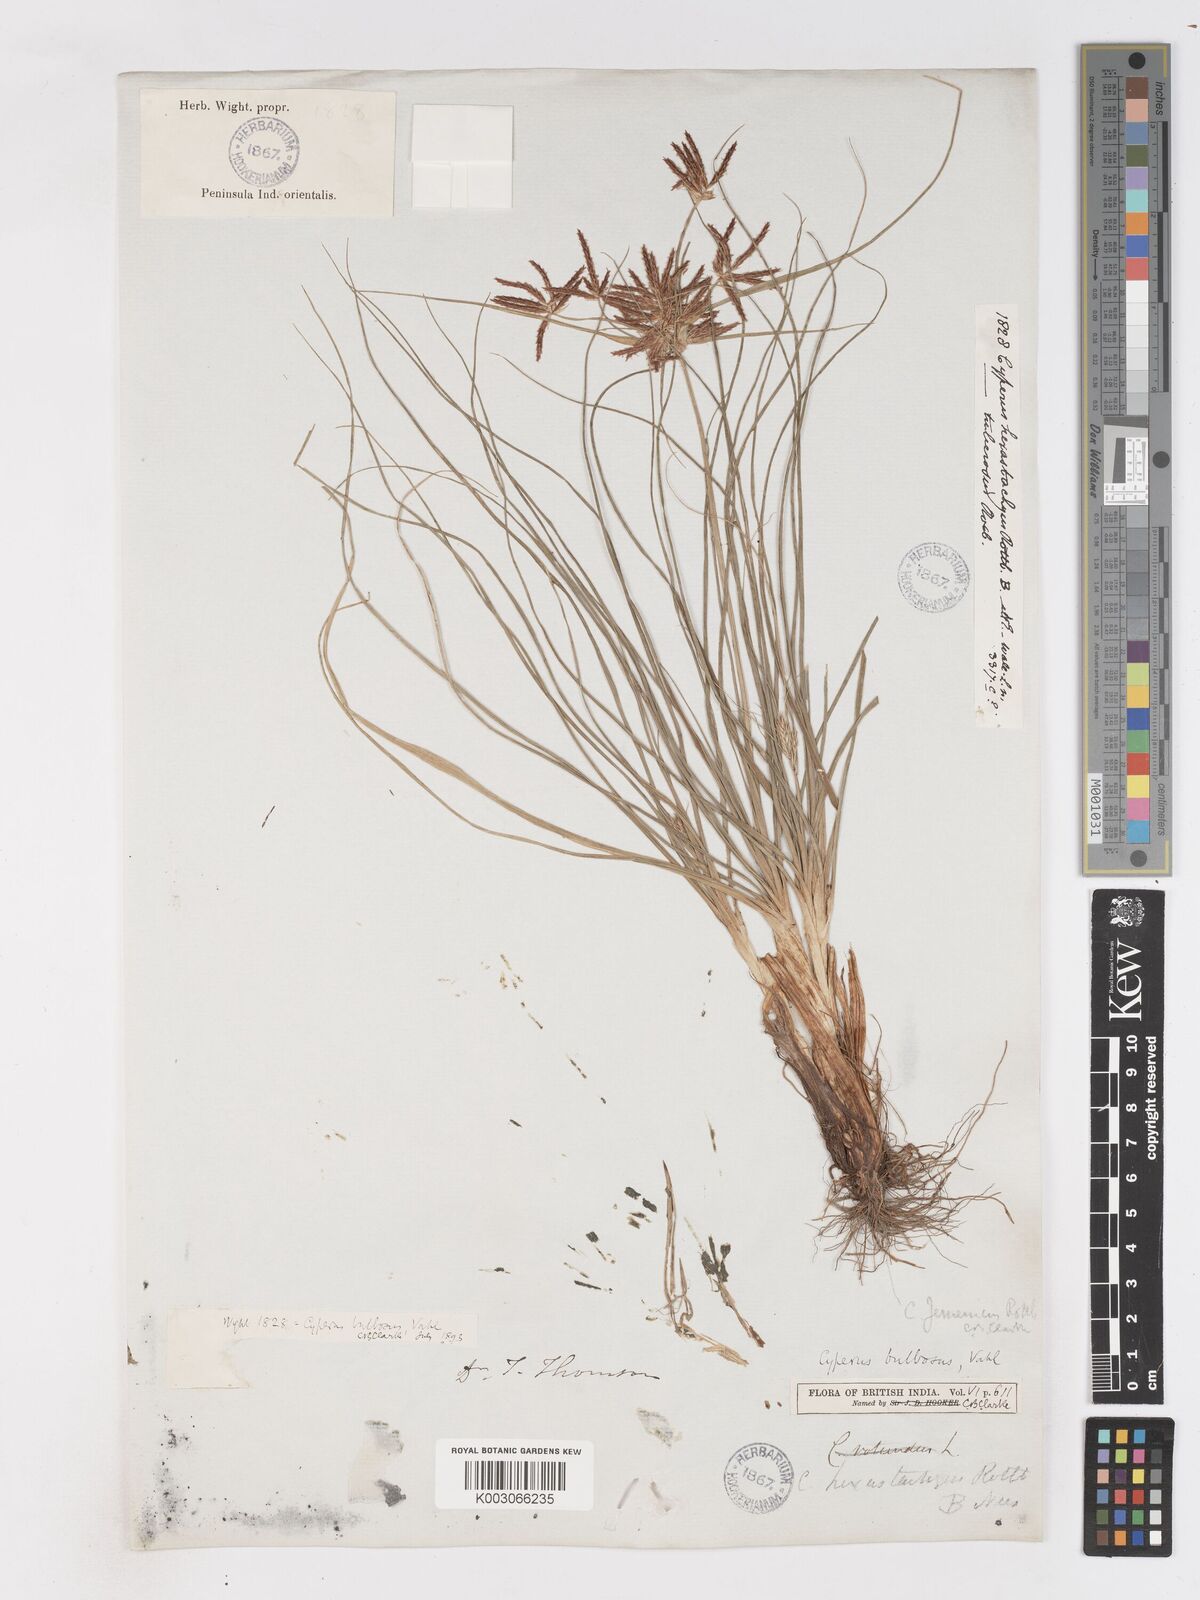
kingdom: Plantae
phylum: Tracheophyta
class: Liliopsida
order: Poales
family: Cyperaceae
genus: Cyperus
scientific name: Cyperus bulbosus
